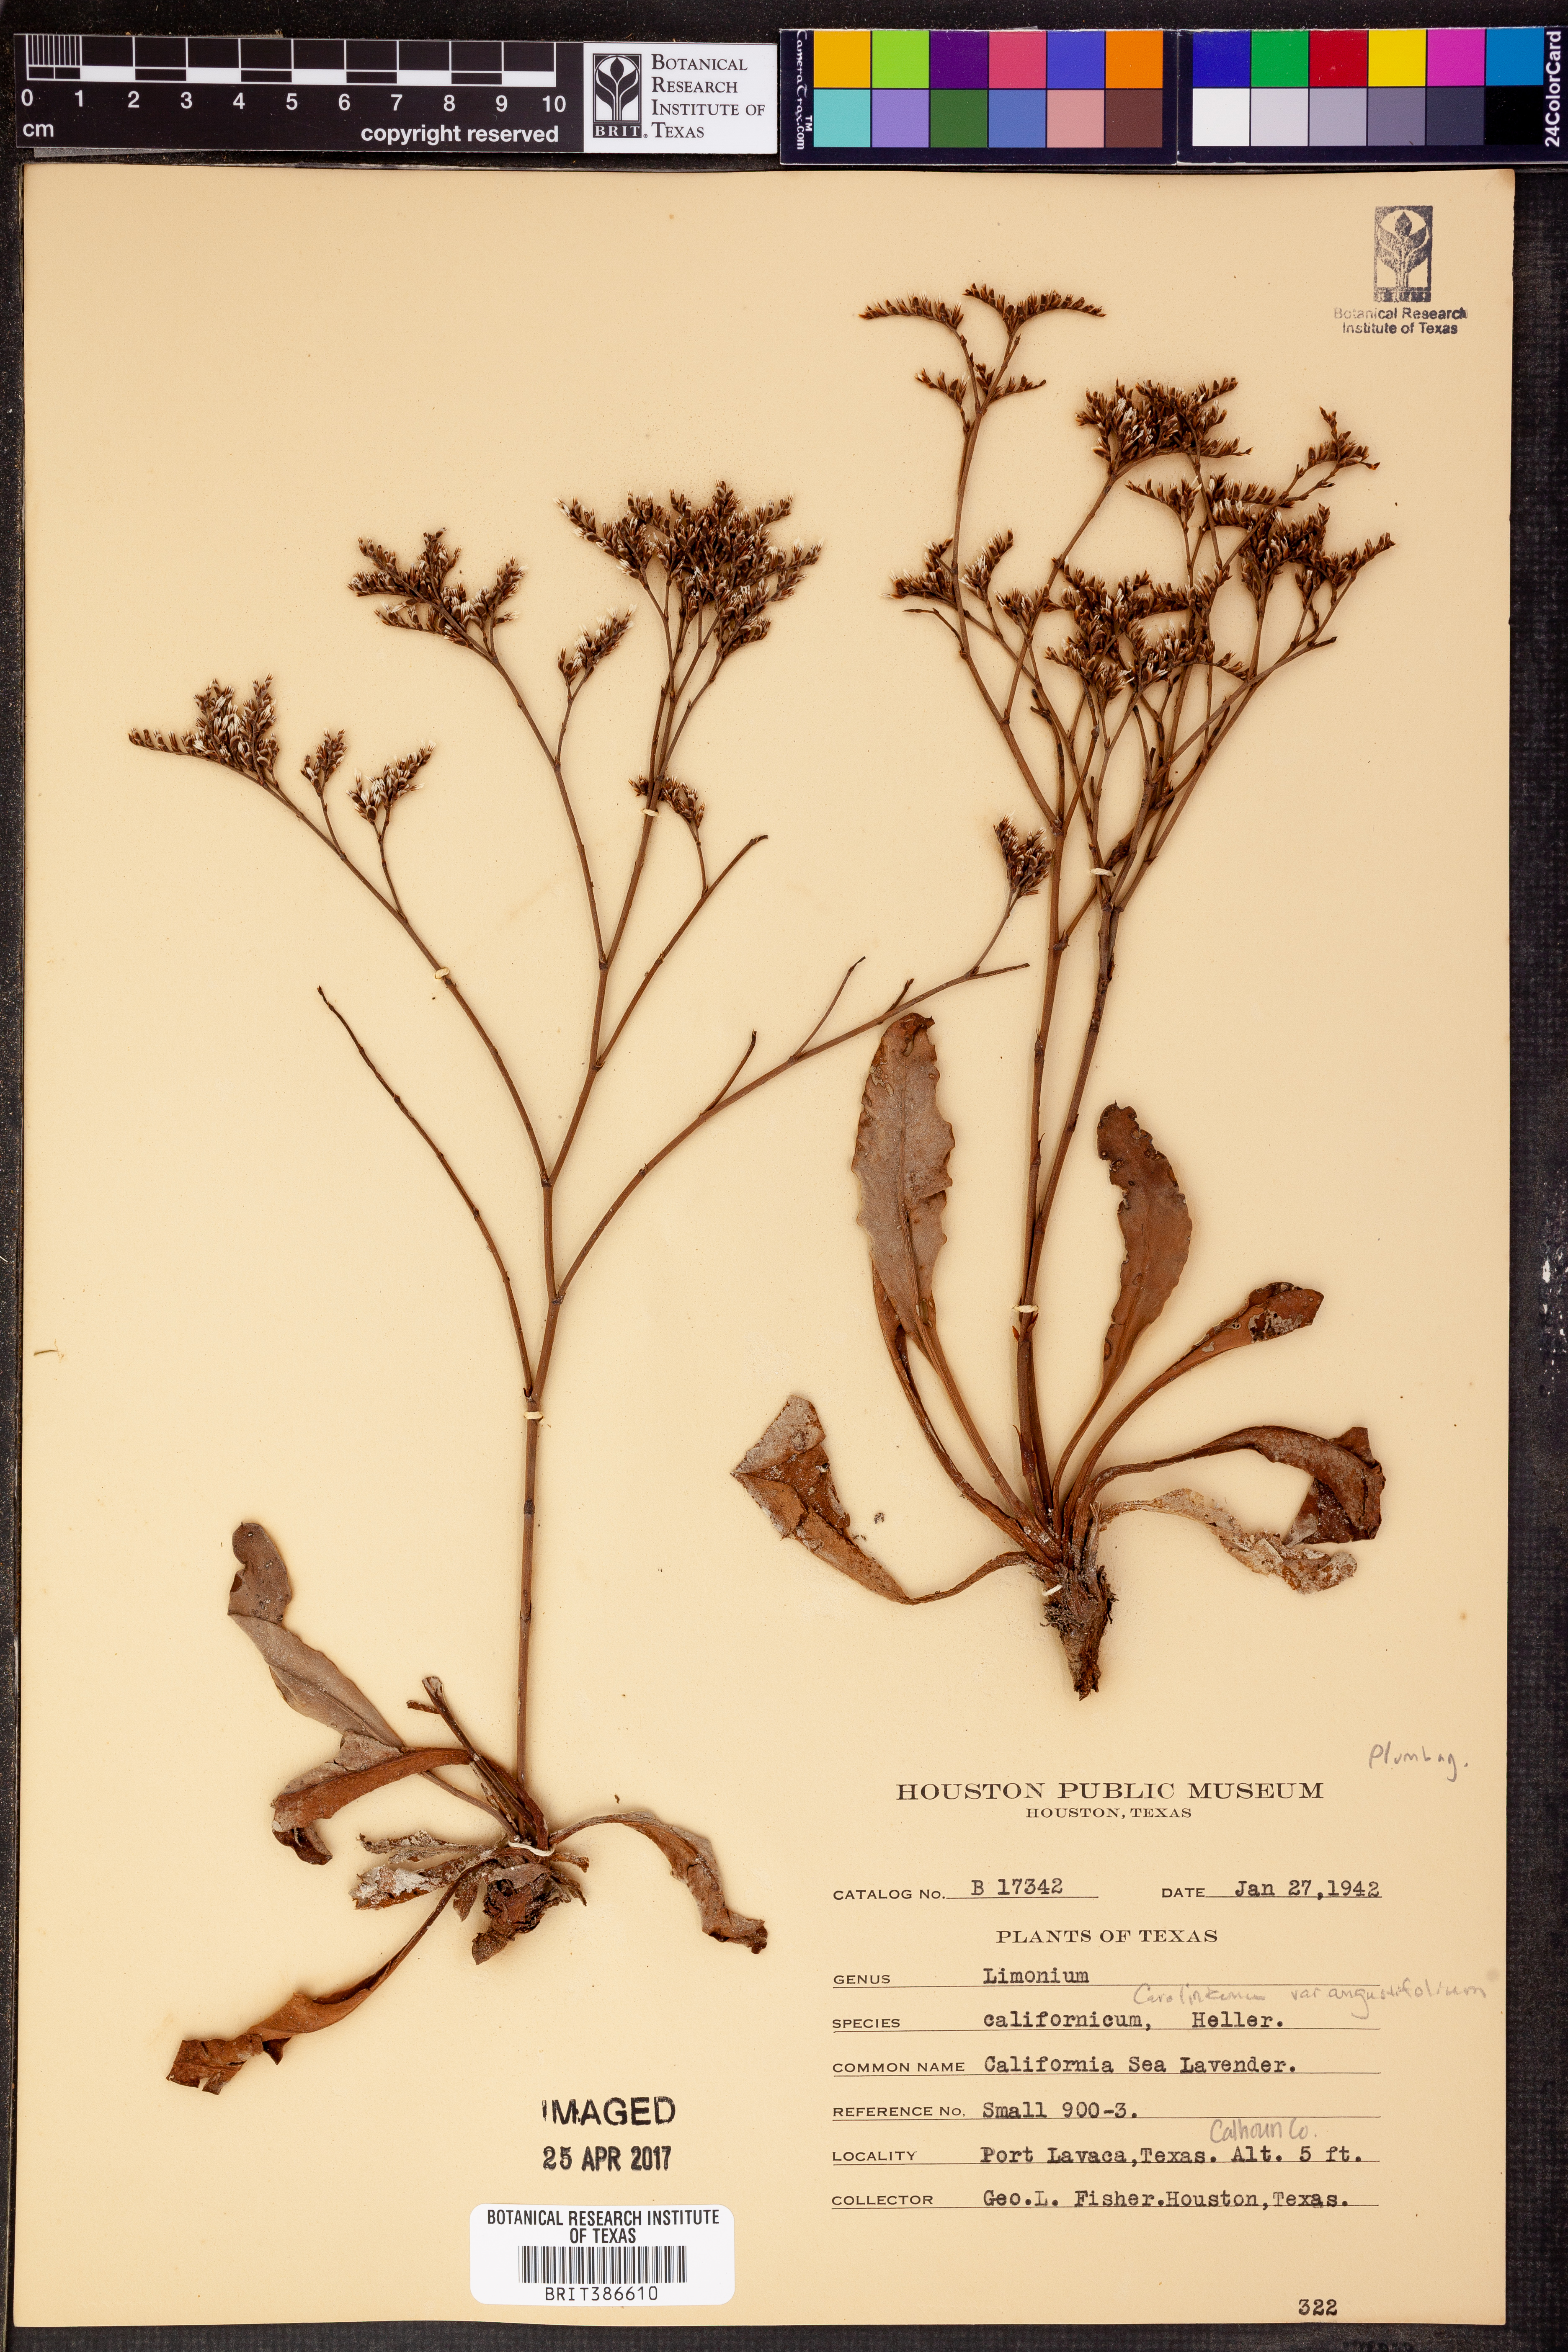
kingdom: Plantae
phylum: Tracheophyta
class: Magnoliopsida
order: Caryophyllales
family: Plumbaginaceae
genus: Limonium
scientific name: Limonium californicum
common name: Marsh-rosemary
